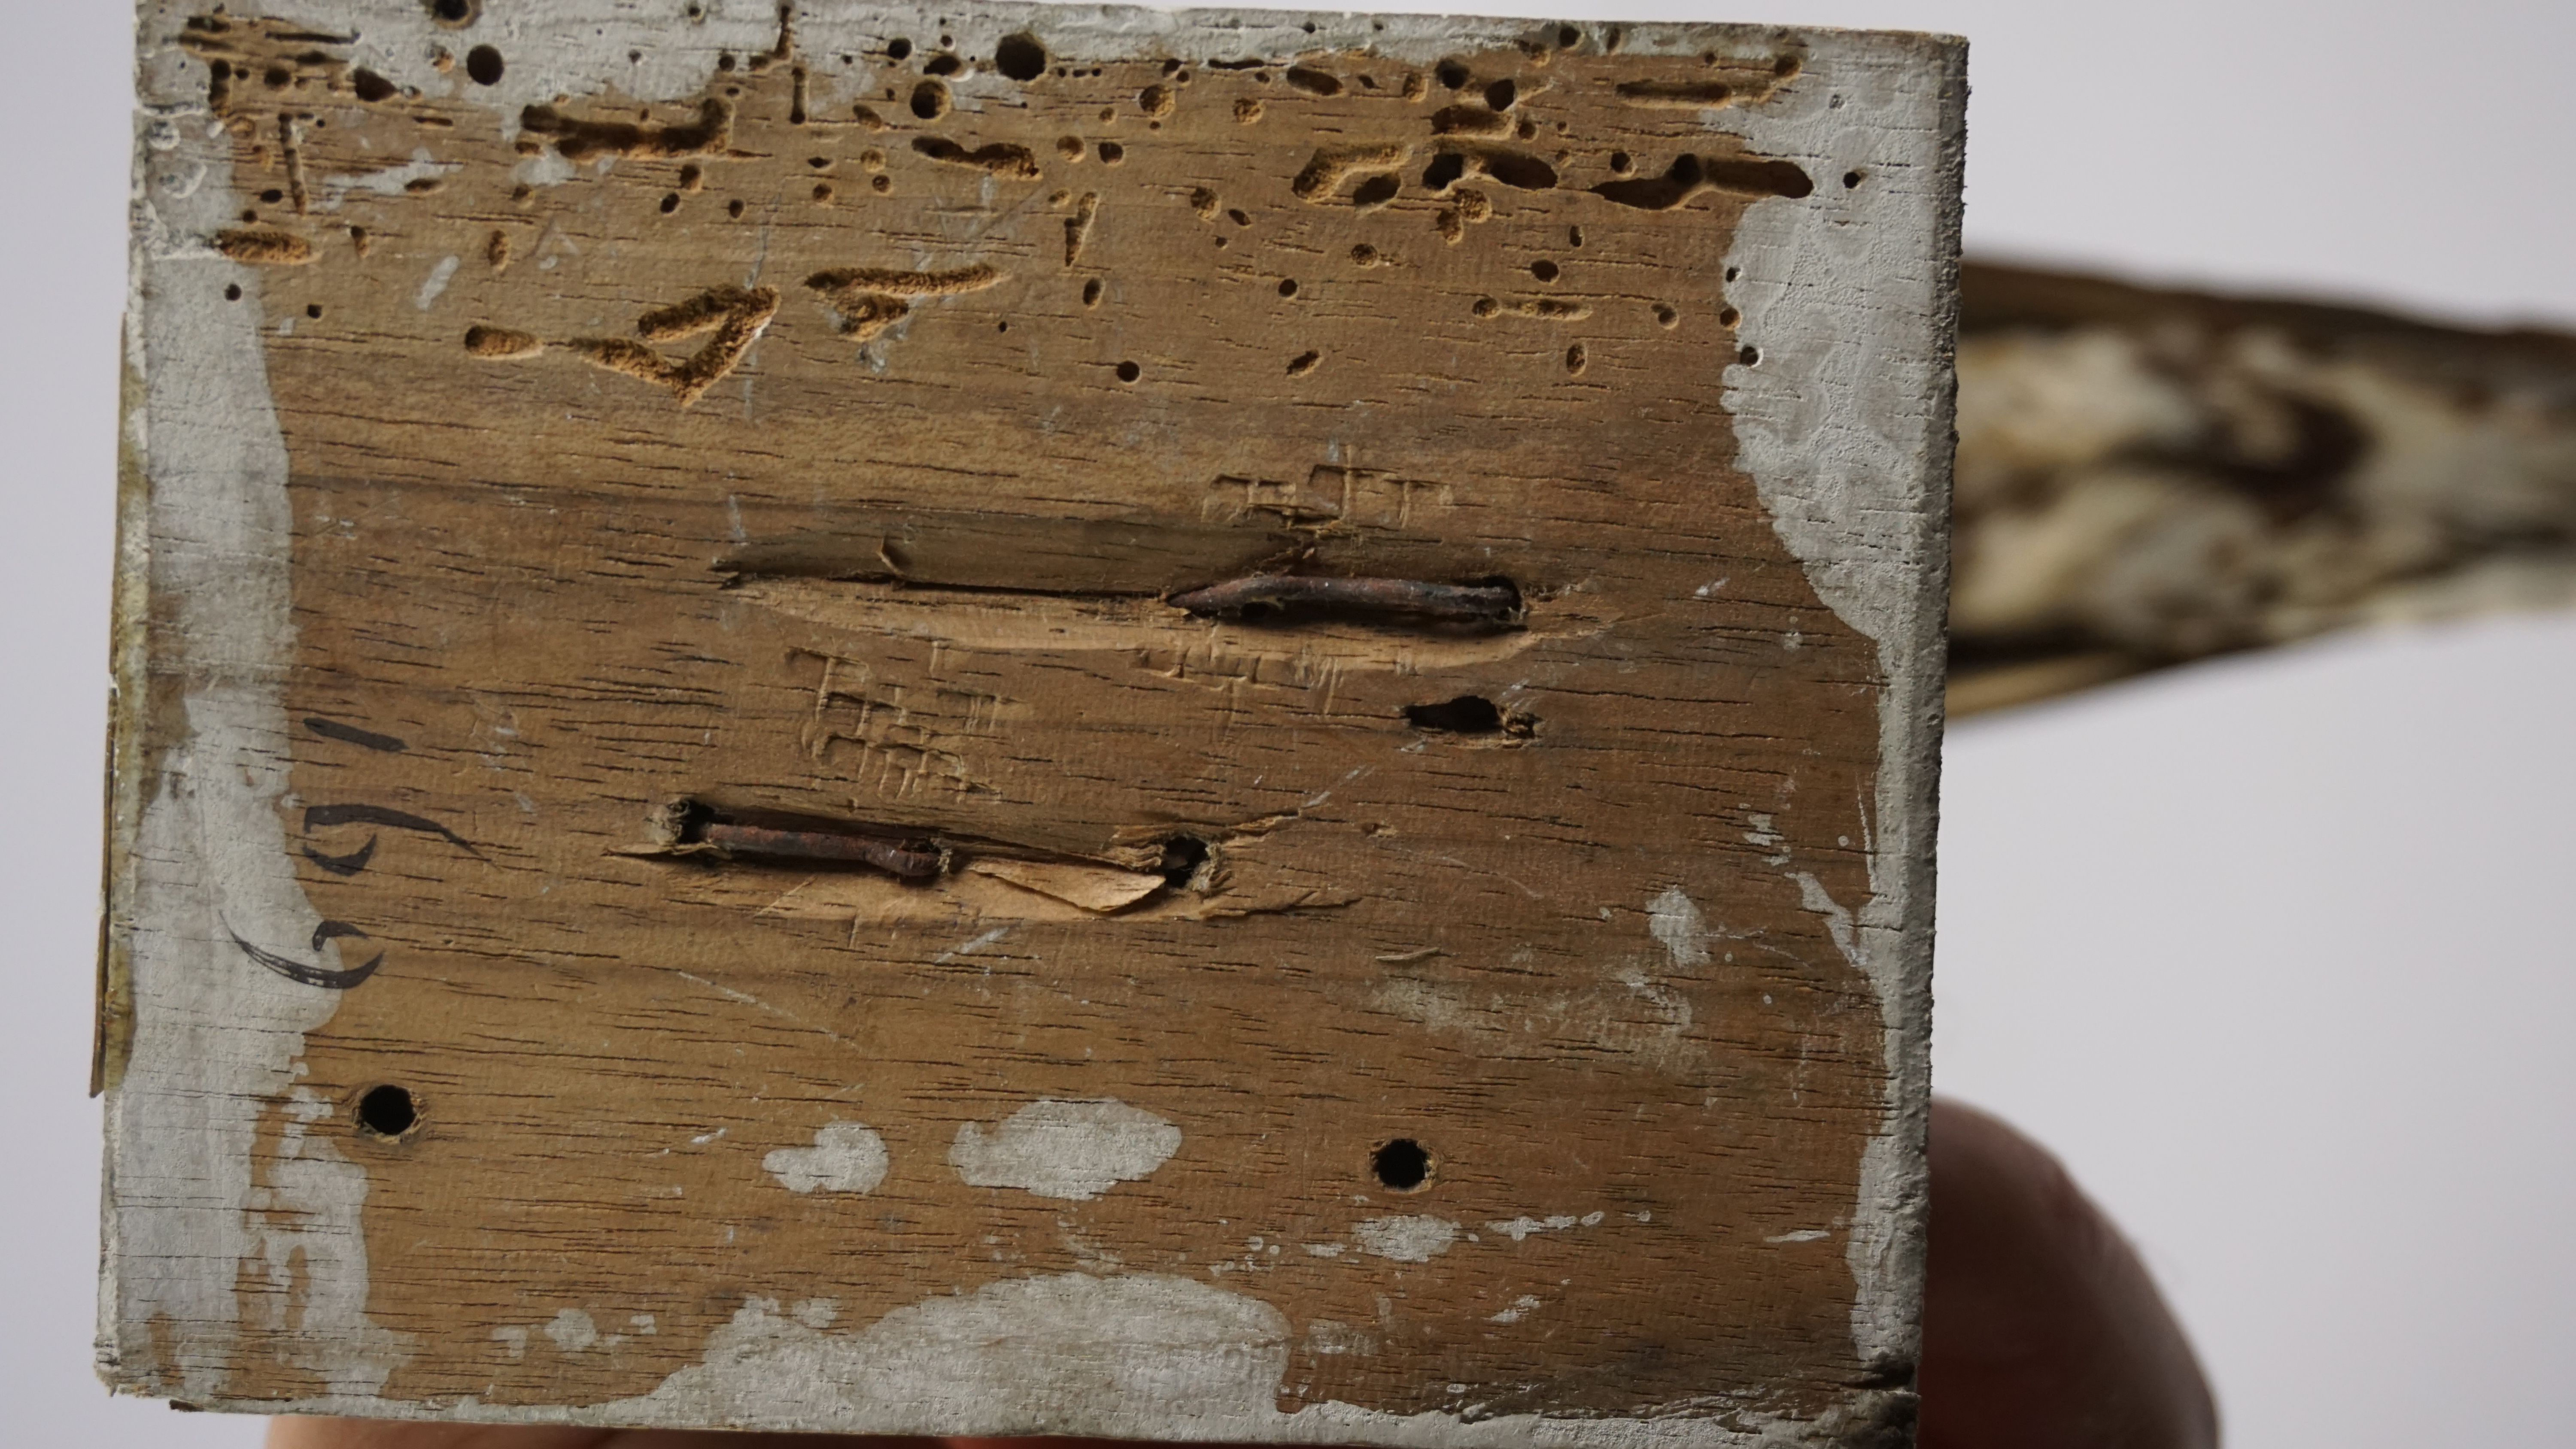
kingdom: Animalia
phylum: Chordata
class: Aves
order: Charadriiformes
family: Charadriidae
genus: Pluvialis
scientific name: Pluvialis fulva
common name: Pacific golden plover
